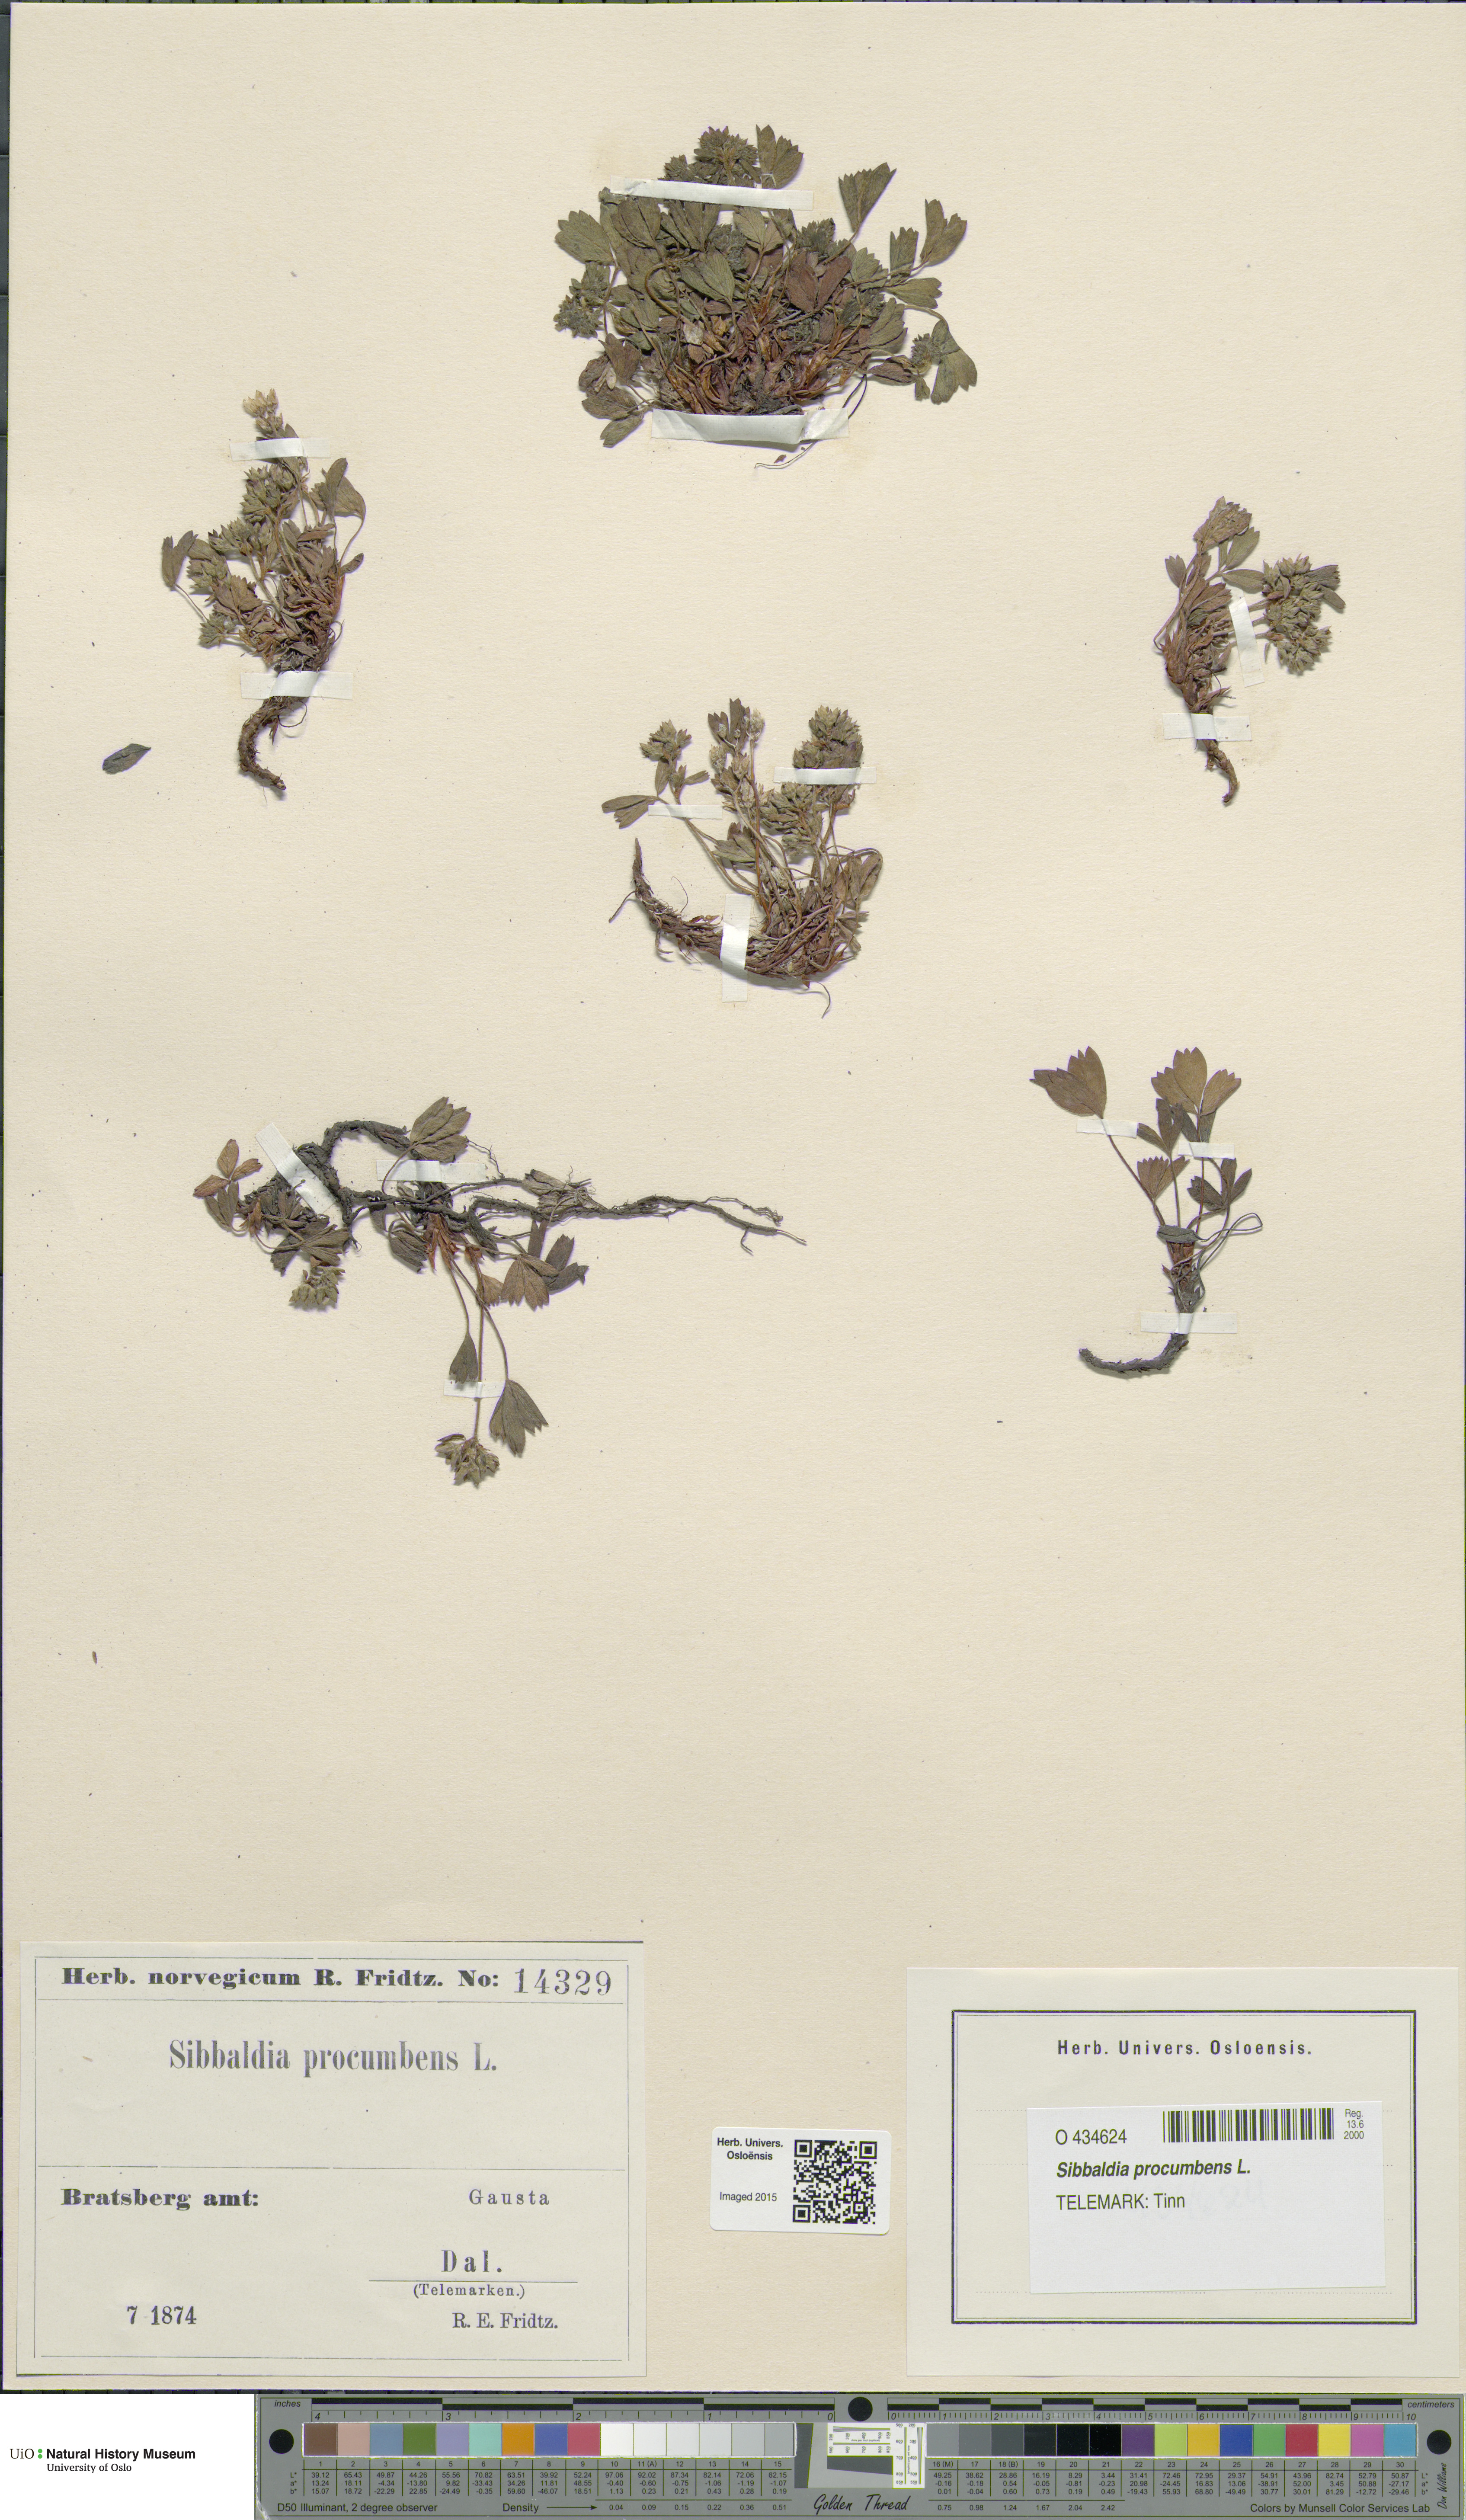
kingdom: Plantae
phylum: Tracheophyta
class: Magnoliopsida
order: Rosales
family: Rosaceae
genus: Sibbaldia
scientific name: Sibbaldia procumbens
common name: Creeping sibbaldia
